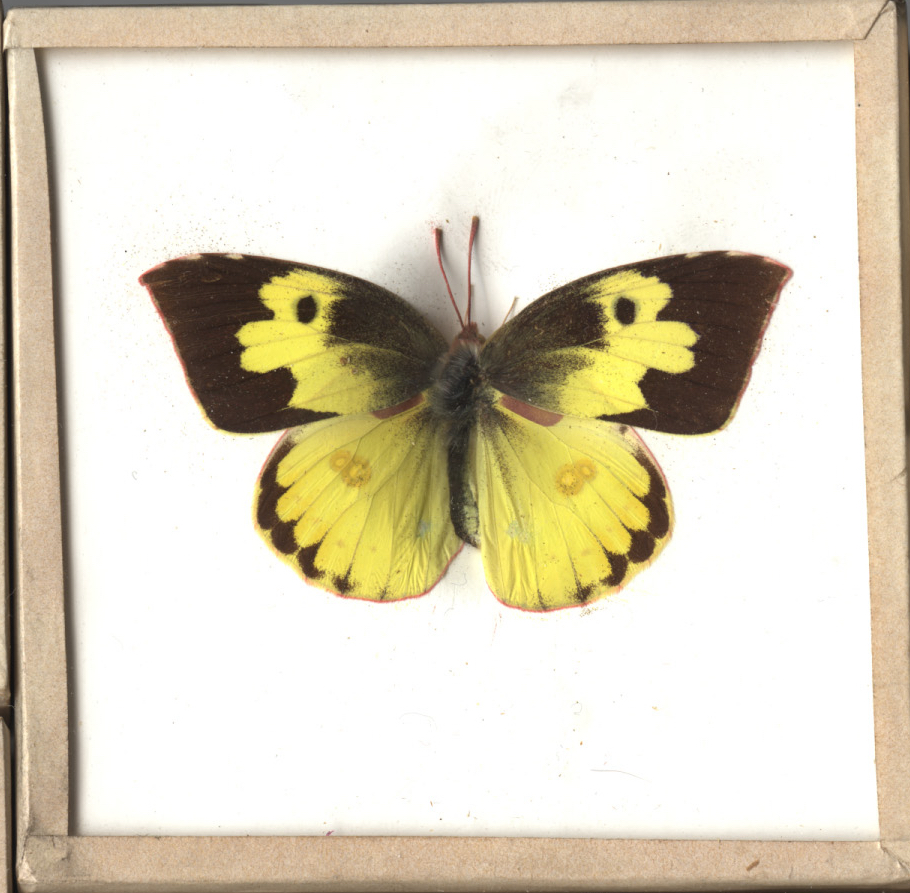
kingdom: Animalia
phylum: Arthropoda
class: Insecta
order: Lepidoptera
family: Pieridae
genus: Zerene
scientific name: Zerene cesonia
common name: Southern Dogface
